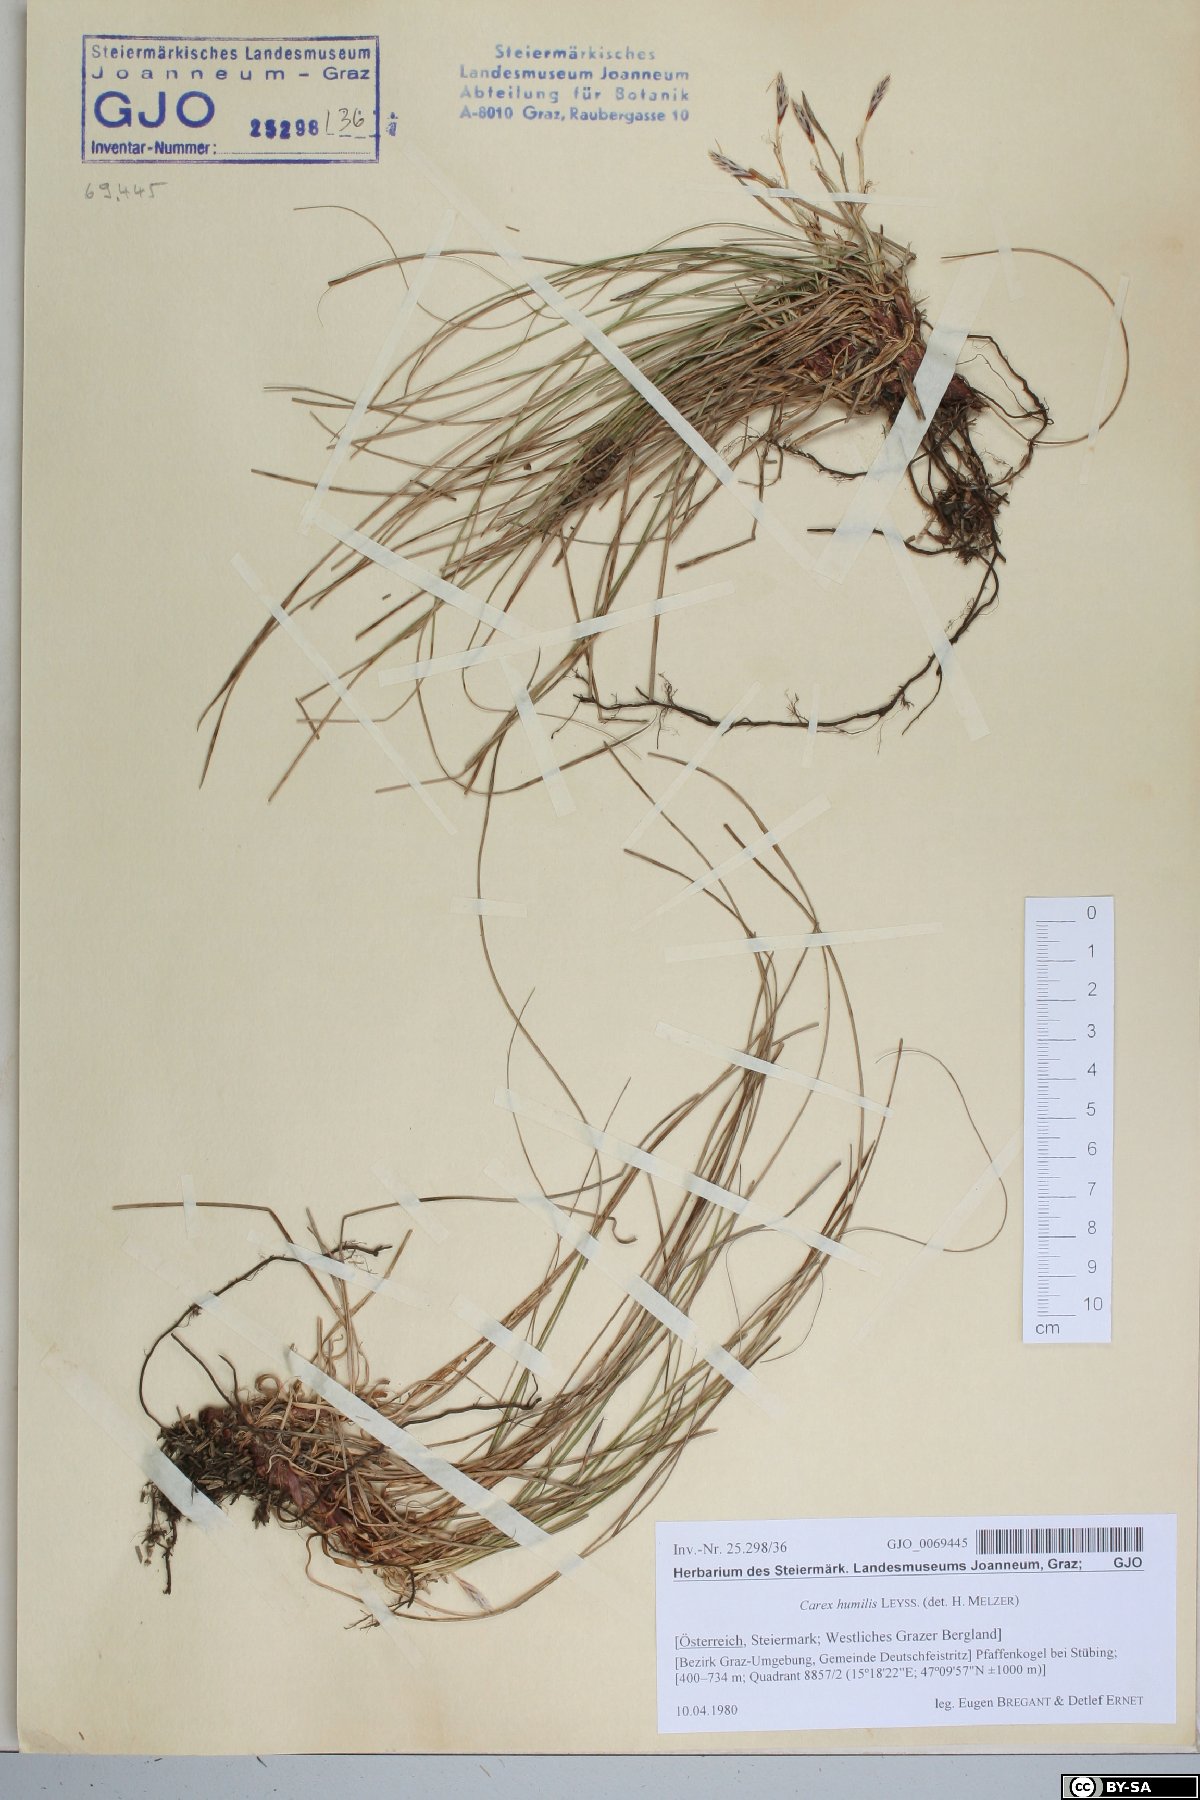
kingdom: Plantae
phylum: Tracheophyta
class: Liliopsida
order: Poales
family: Cyperaceae
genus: Carex
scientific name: Carex humilis
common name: Dwarf sedge
